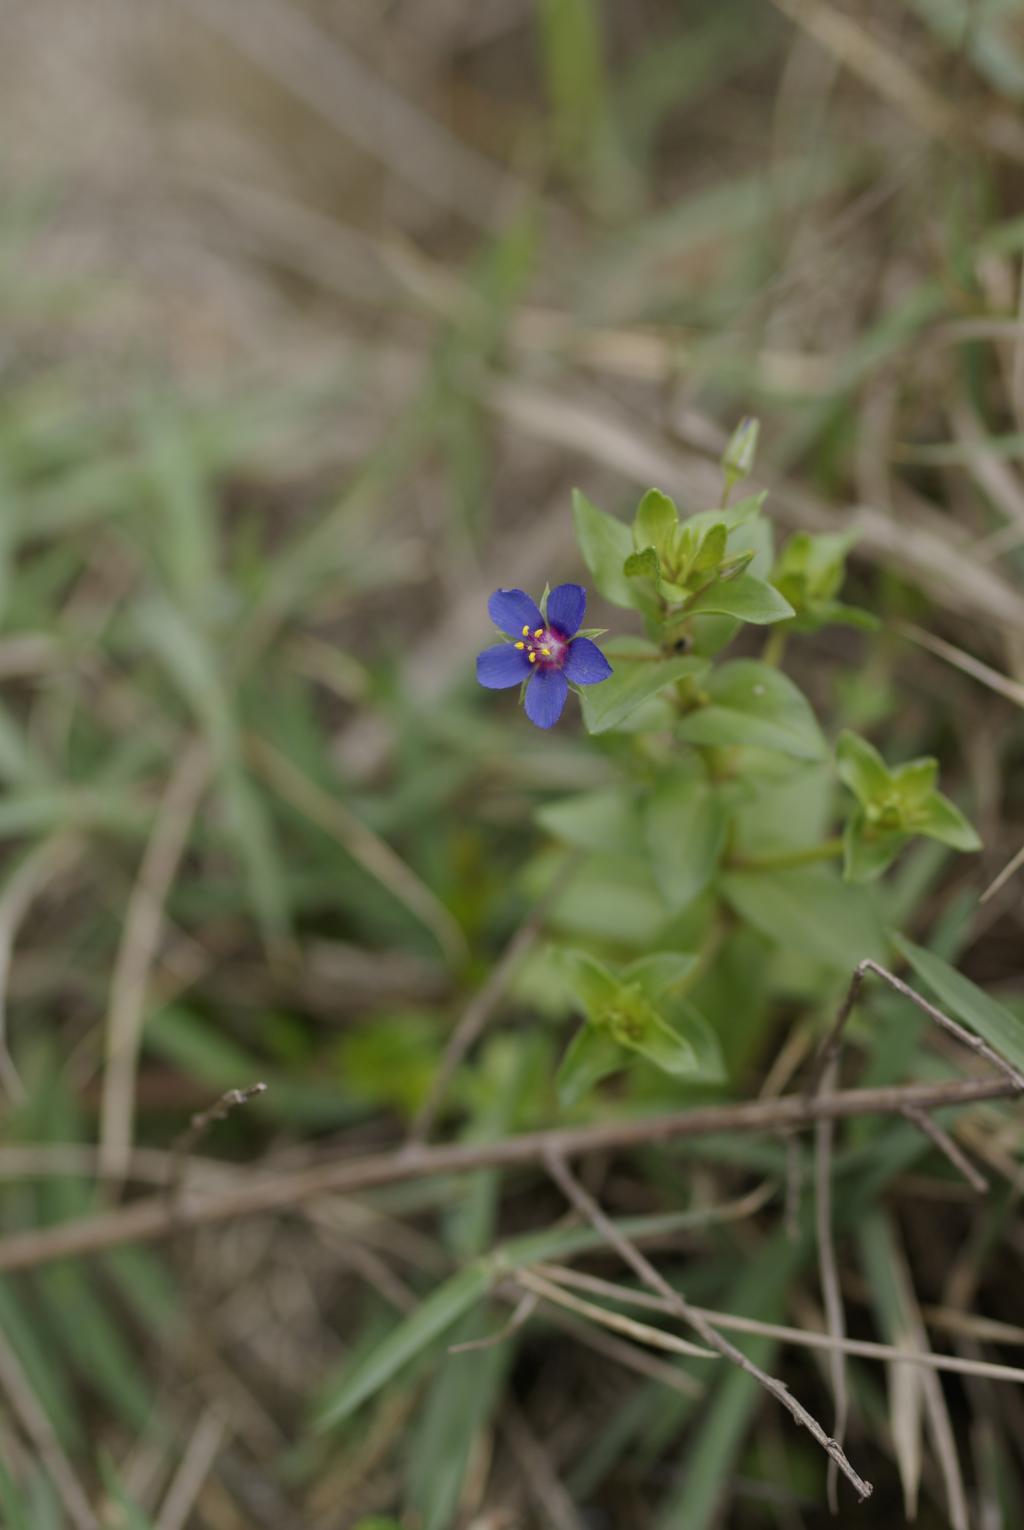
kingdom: Plantae
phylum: Tracheophyta
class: Magnoliopsida
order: Ericales
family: Primulaceae
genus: Lysimachia
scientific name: Lysimachia arvensis
